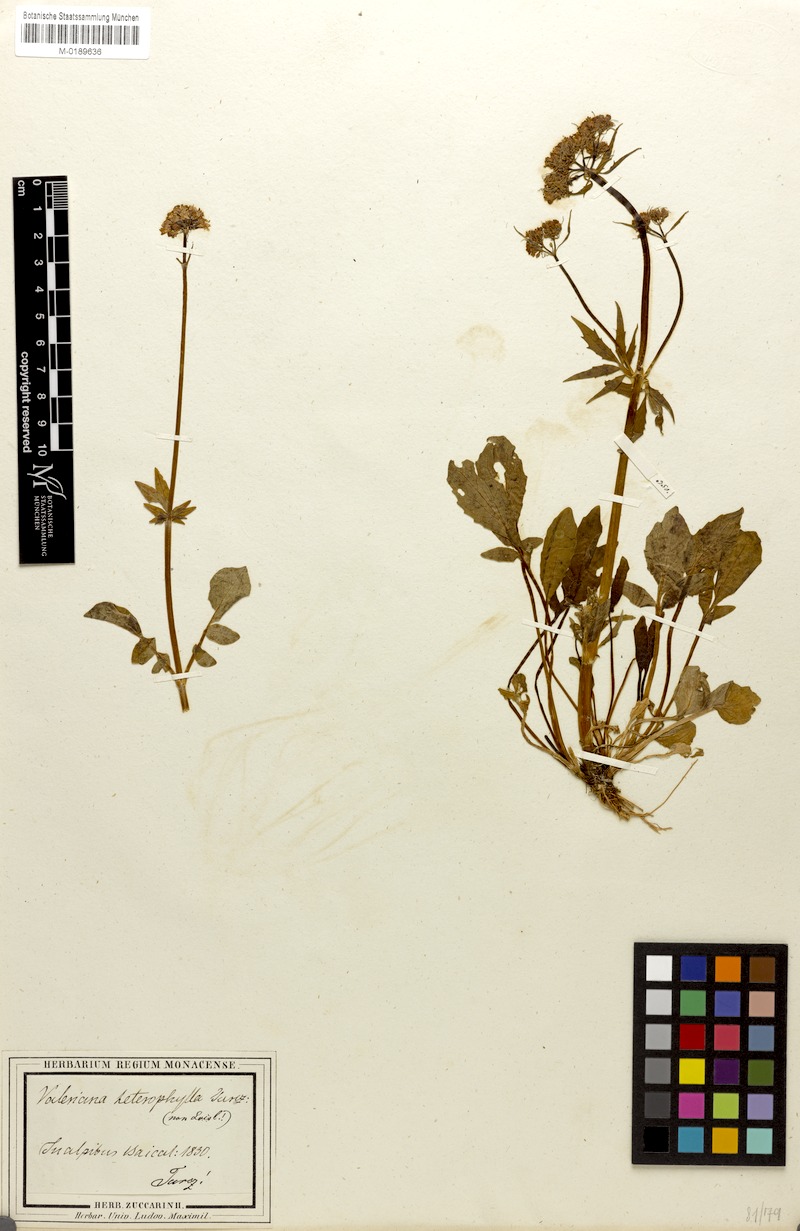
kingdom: Plantae
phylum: Tracheophyta
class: Magnoliopsida
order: Dipsacales
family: Caprifoliaceae
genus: Valeriana
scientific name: Valeriana altaica
